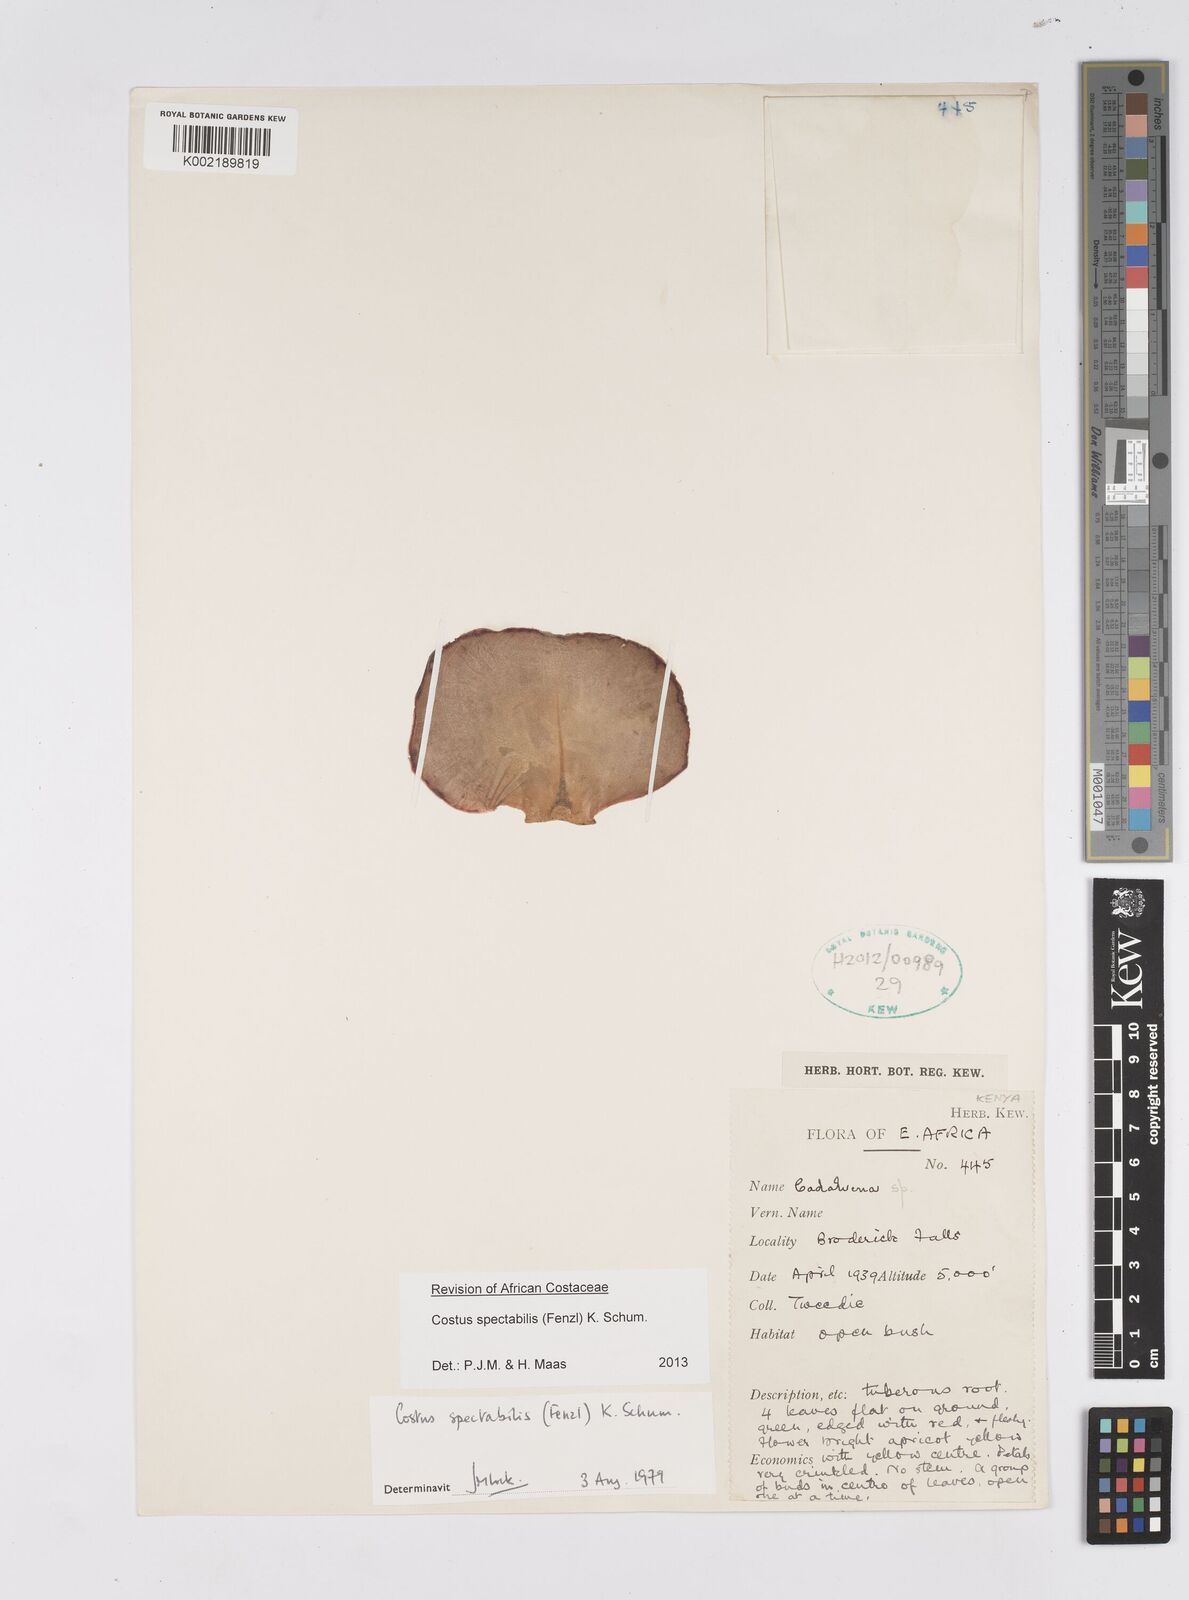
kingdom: Plantae
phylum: Tracheophyta
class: Liliopsida
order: Zingiberales
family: Costaceae
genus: Costus
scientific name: Costus spectabilis
